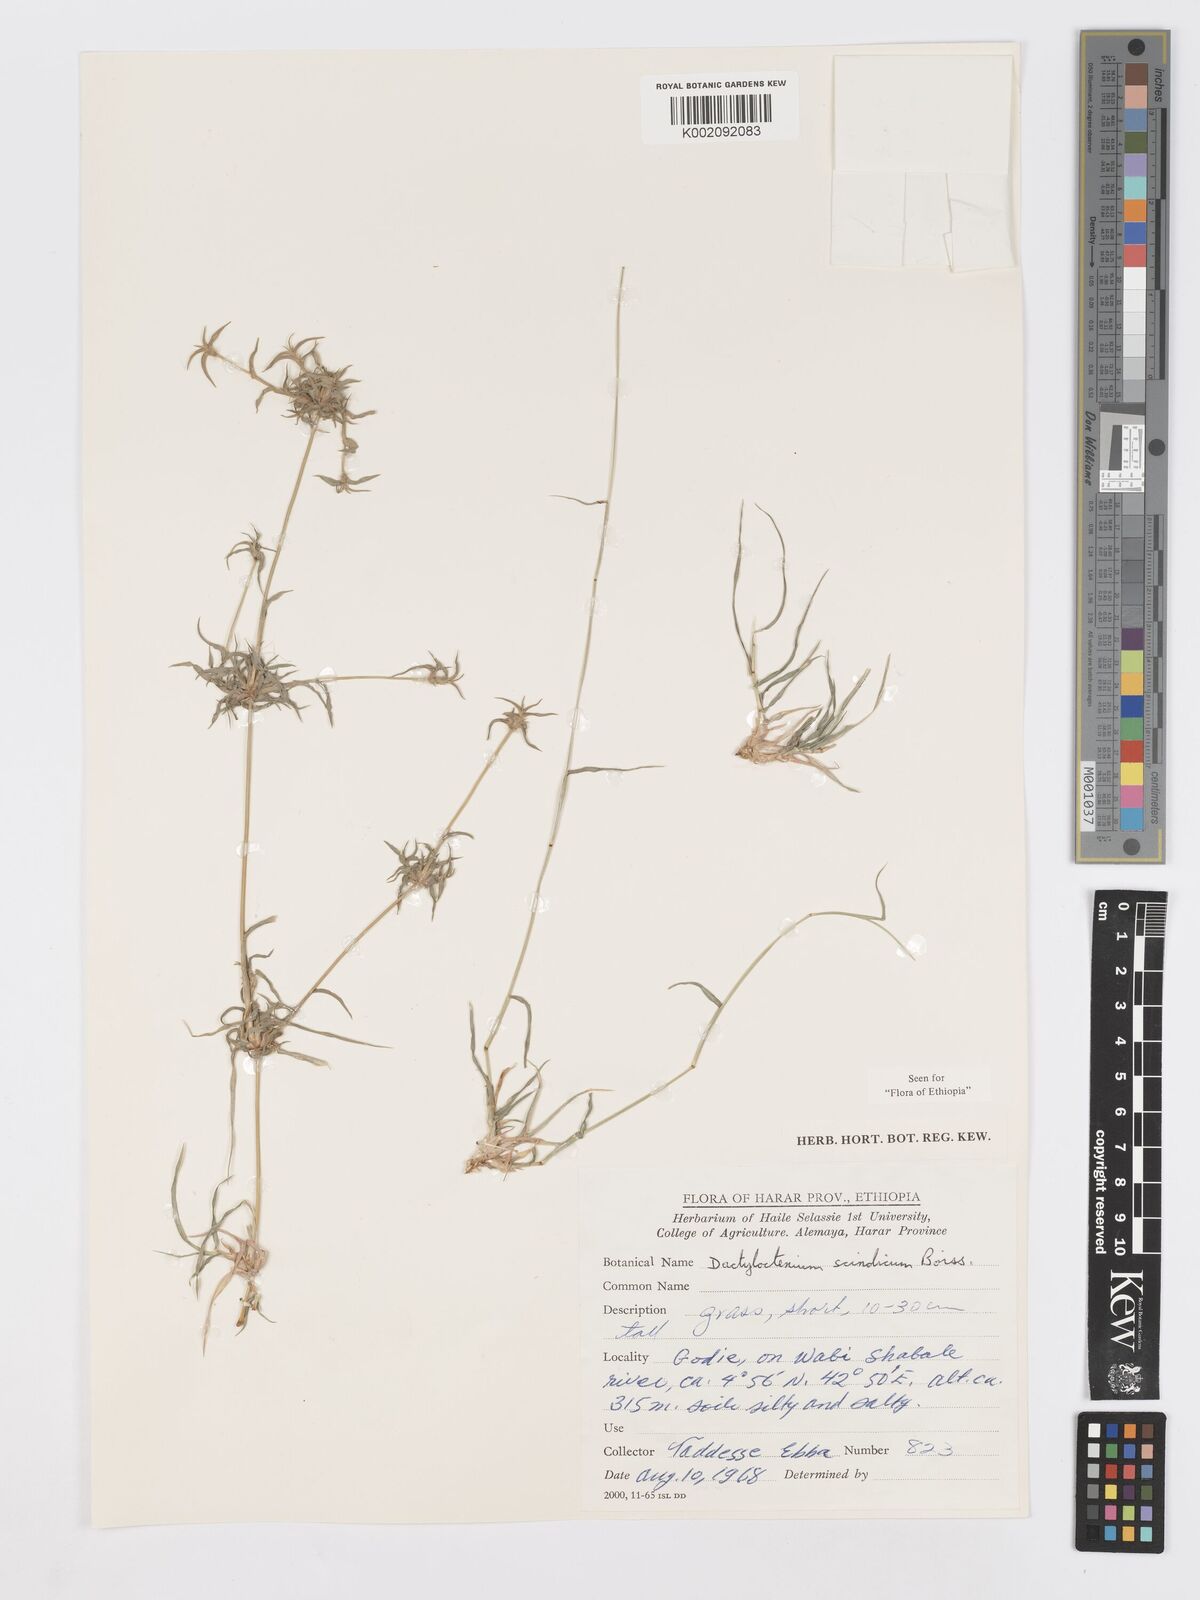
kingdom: Plantae
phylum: Tracheophyta
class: Liliopsida
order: Poales
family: Poaceae
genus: Dactyloctenium
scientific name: Dactyloctenium scindicum
